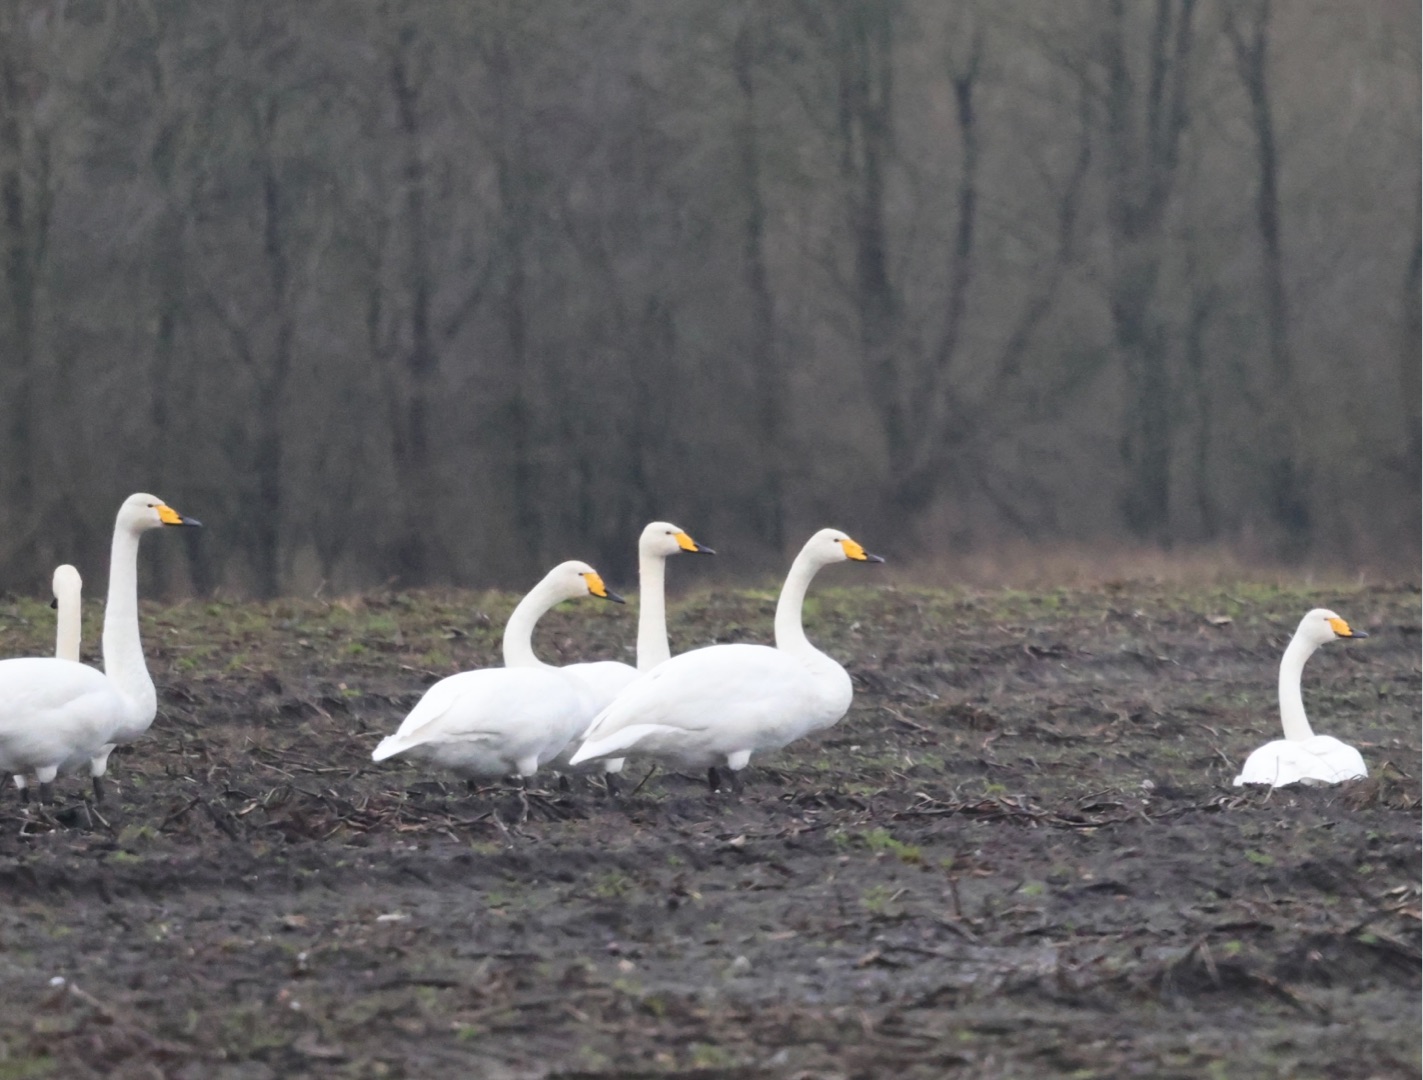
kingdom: Animalia
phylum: Chordata
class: Aves
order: Anseriformes
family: Anatidae
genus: Cygnus
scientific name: Cygnus cygnus
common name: Sangsvane
